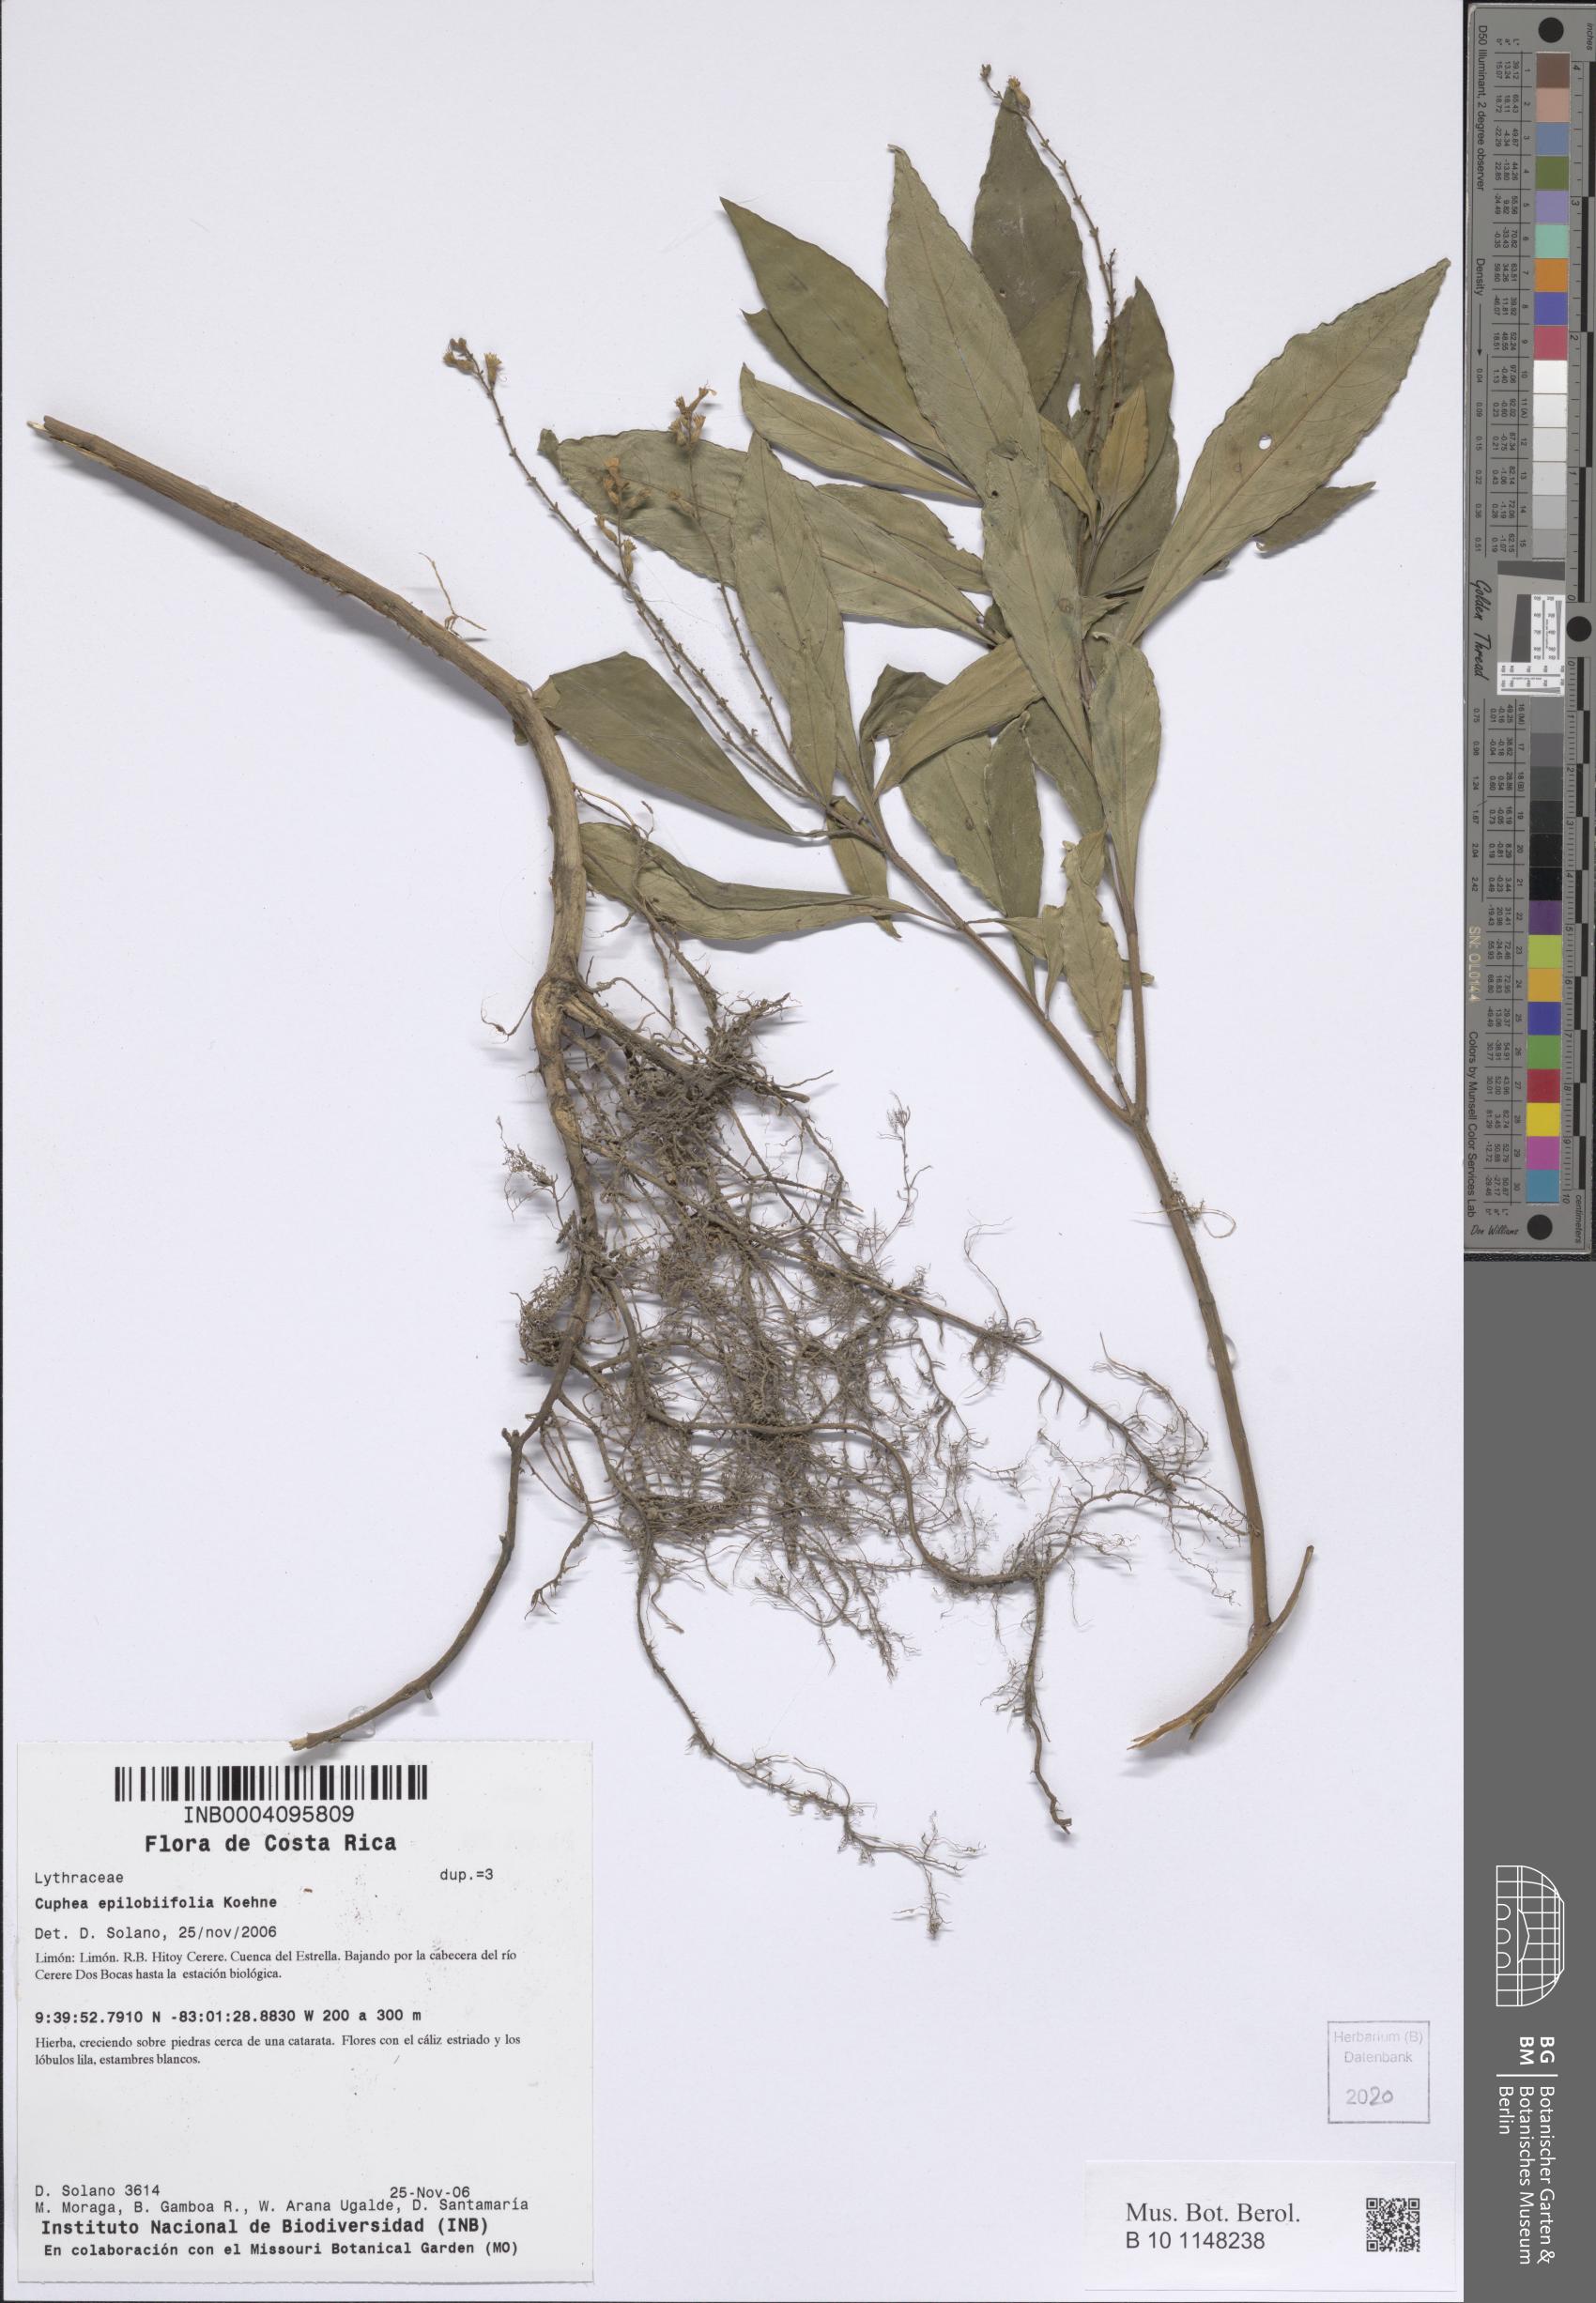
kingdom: Plantae
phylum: Tracheophyta
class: Magnoliopsida
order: Myrtales
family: Lythraceae
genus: Cuphea
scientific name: Cuphea epilobiifolia
